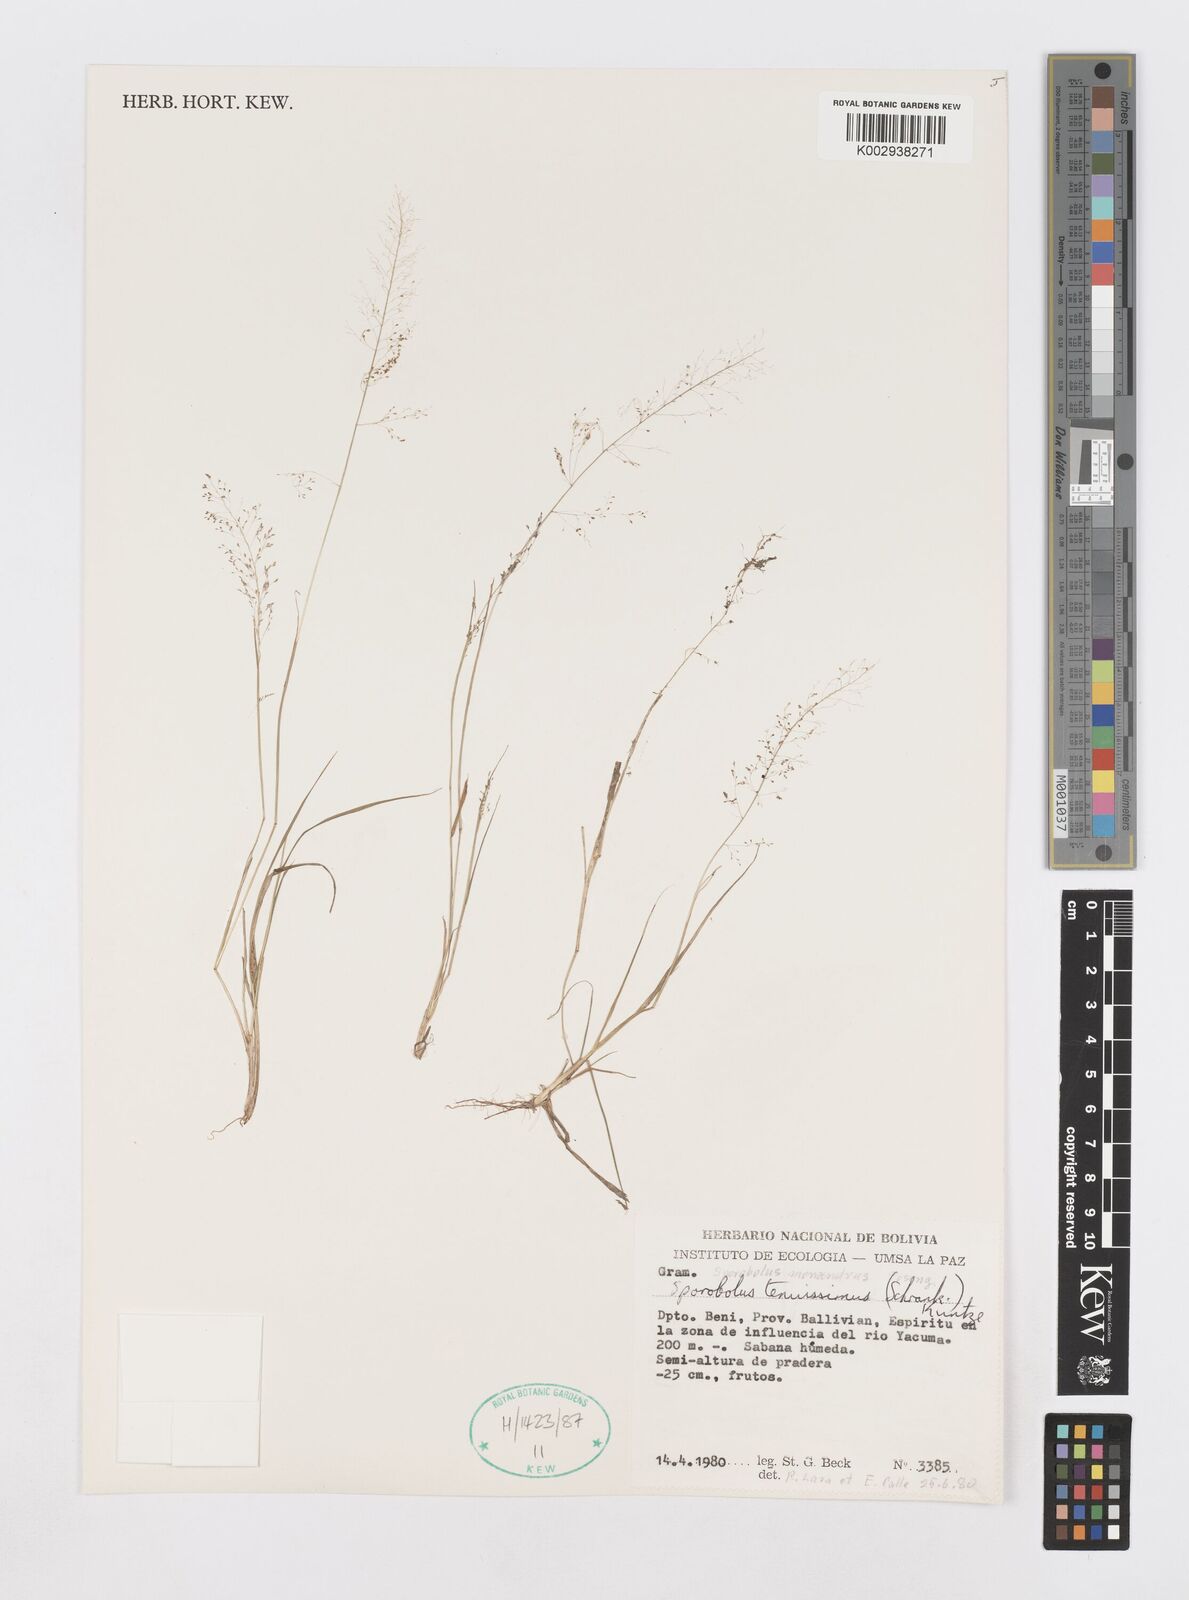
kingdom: Plantae
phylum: Tracheophyta
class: Liliopsida
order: Poales
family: Poaceae
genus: Sporobolus
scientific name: Sporobolus monandrus
